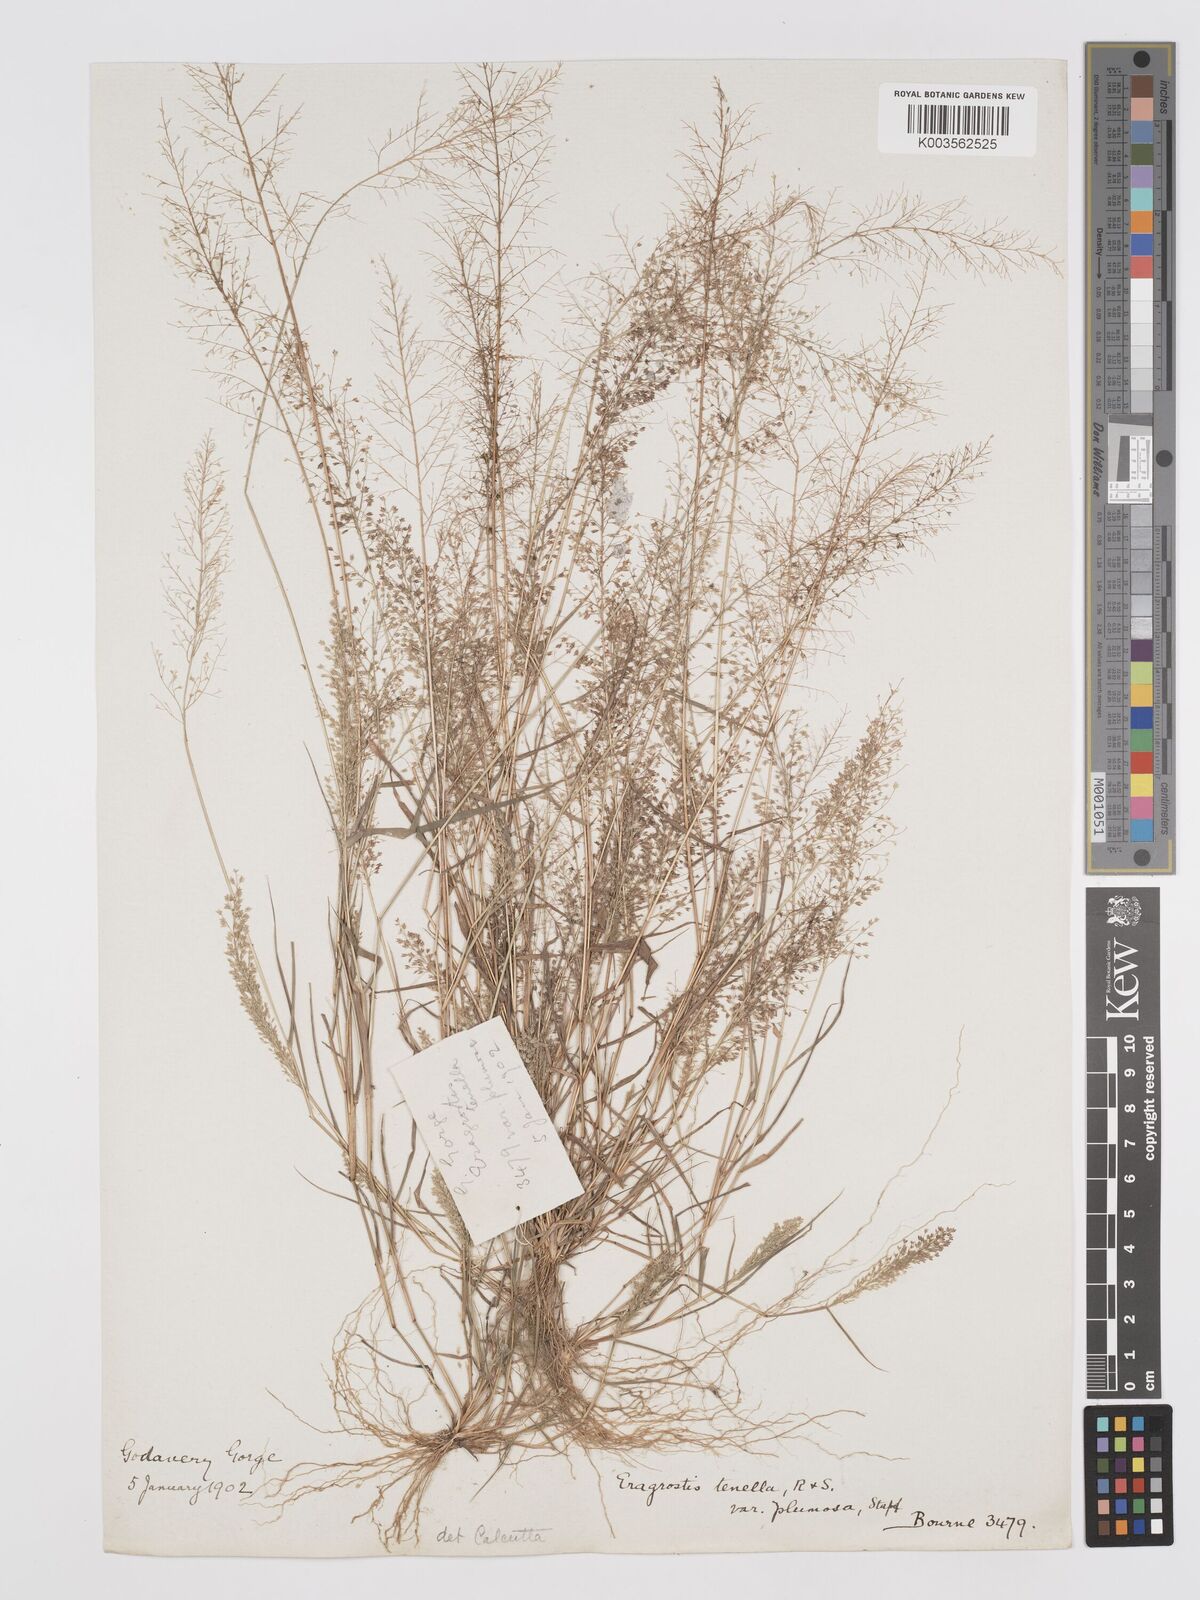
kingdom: Plantae
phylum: Tracheophyta
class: Liliopsida
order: Poales
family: Poaceae
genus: Eragrostis
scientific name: Eragrostis tenella
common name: Japanese lovegrass
